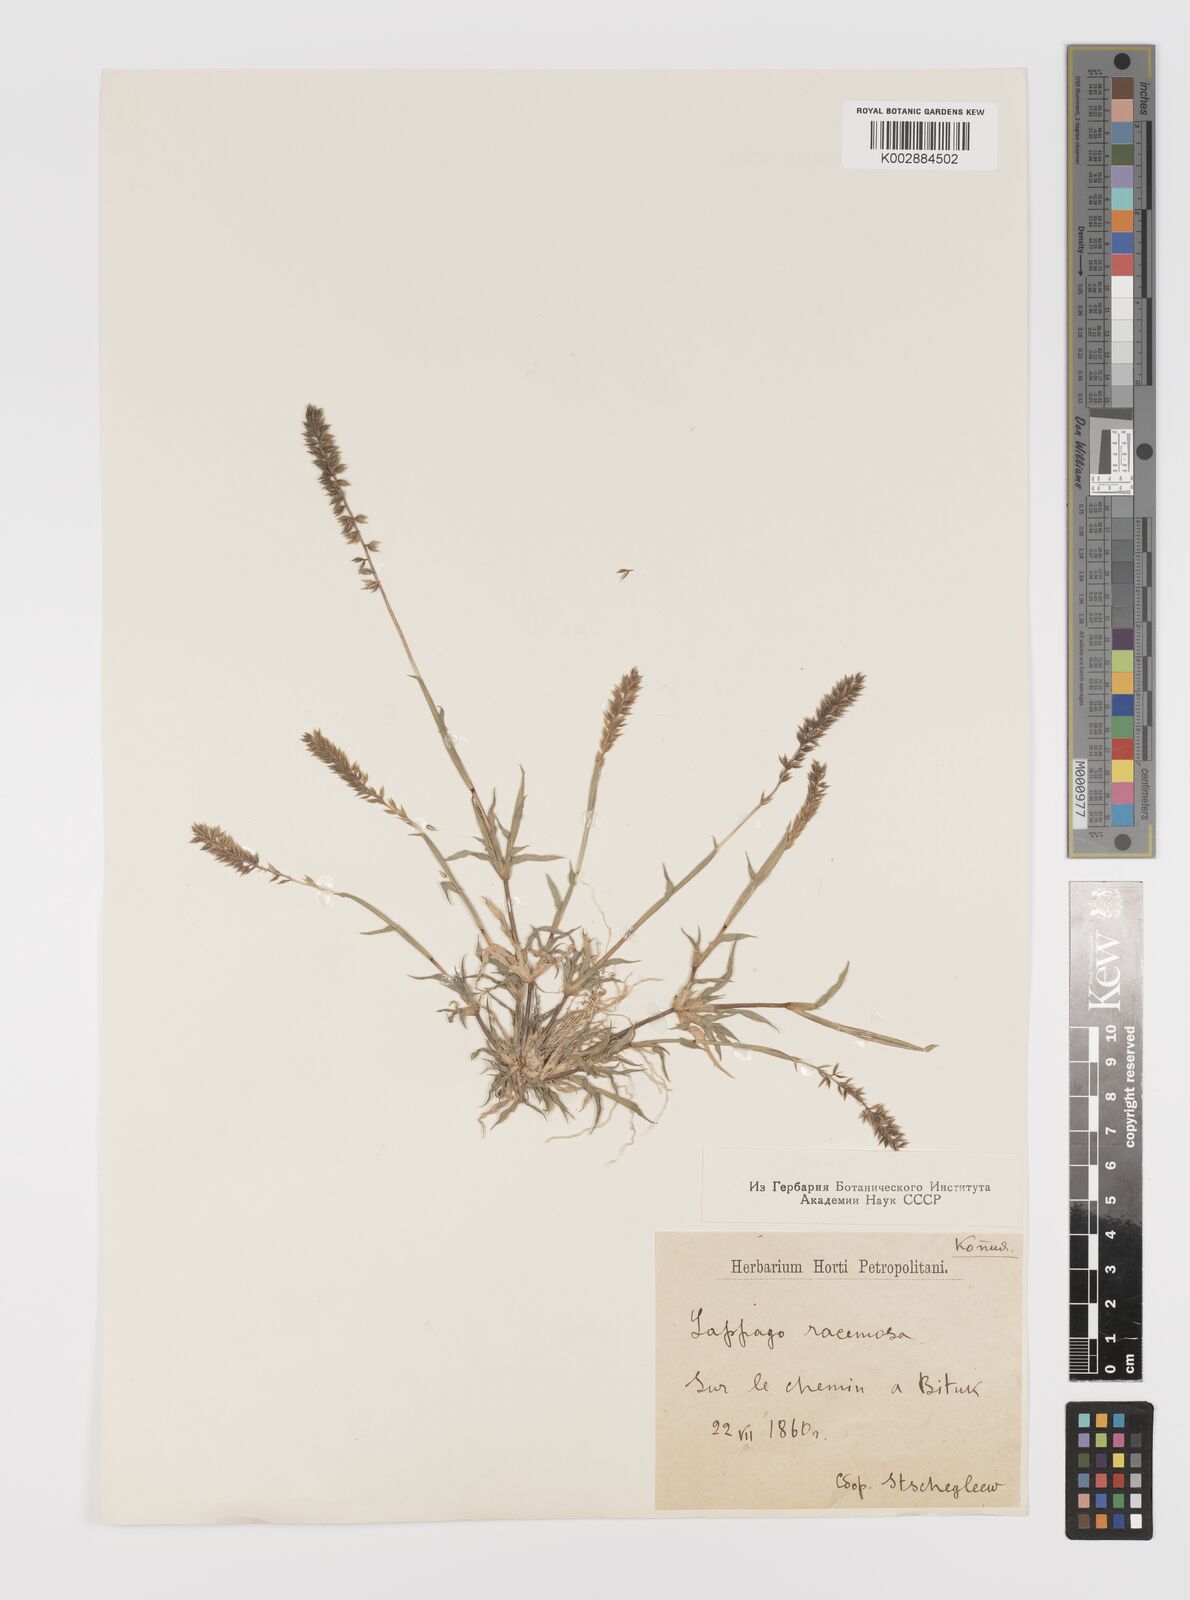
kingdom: Plantae
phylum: Tracheophyta
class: Liliopsida
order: Poales
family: Poaceae
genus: Tragus
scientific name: Tragus racemosus
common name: European bur-grass
